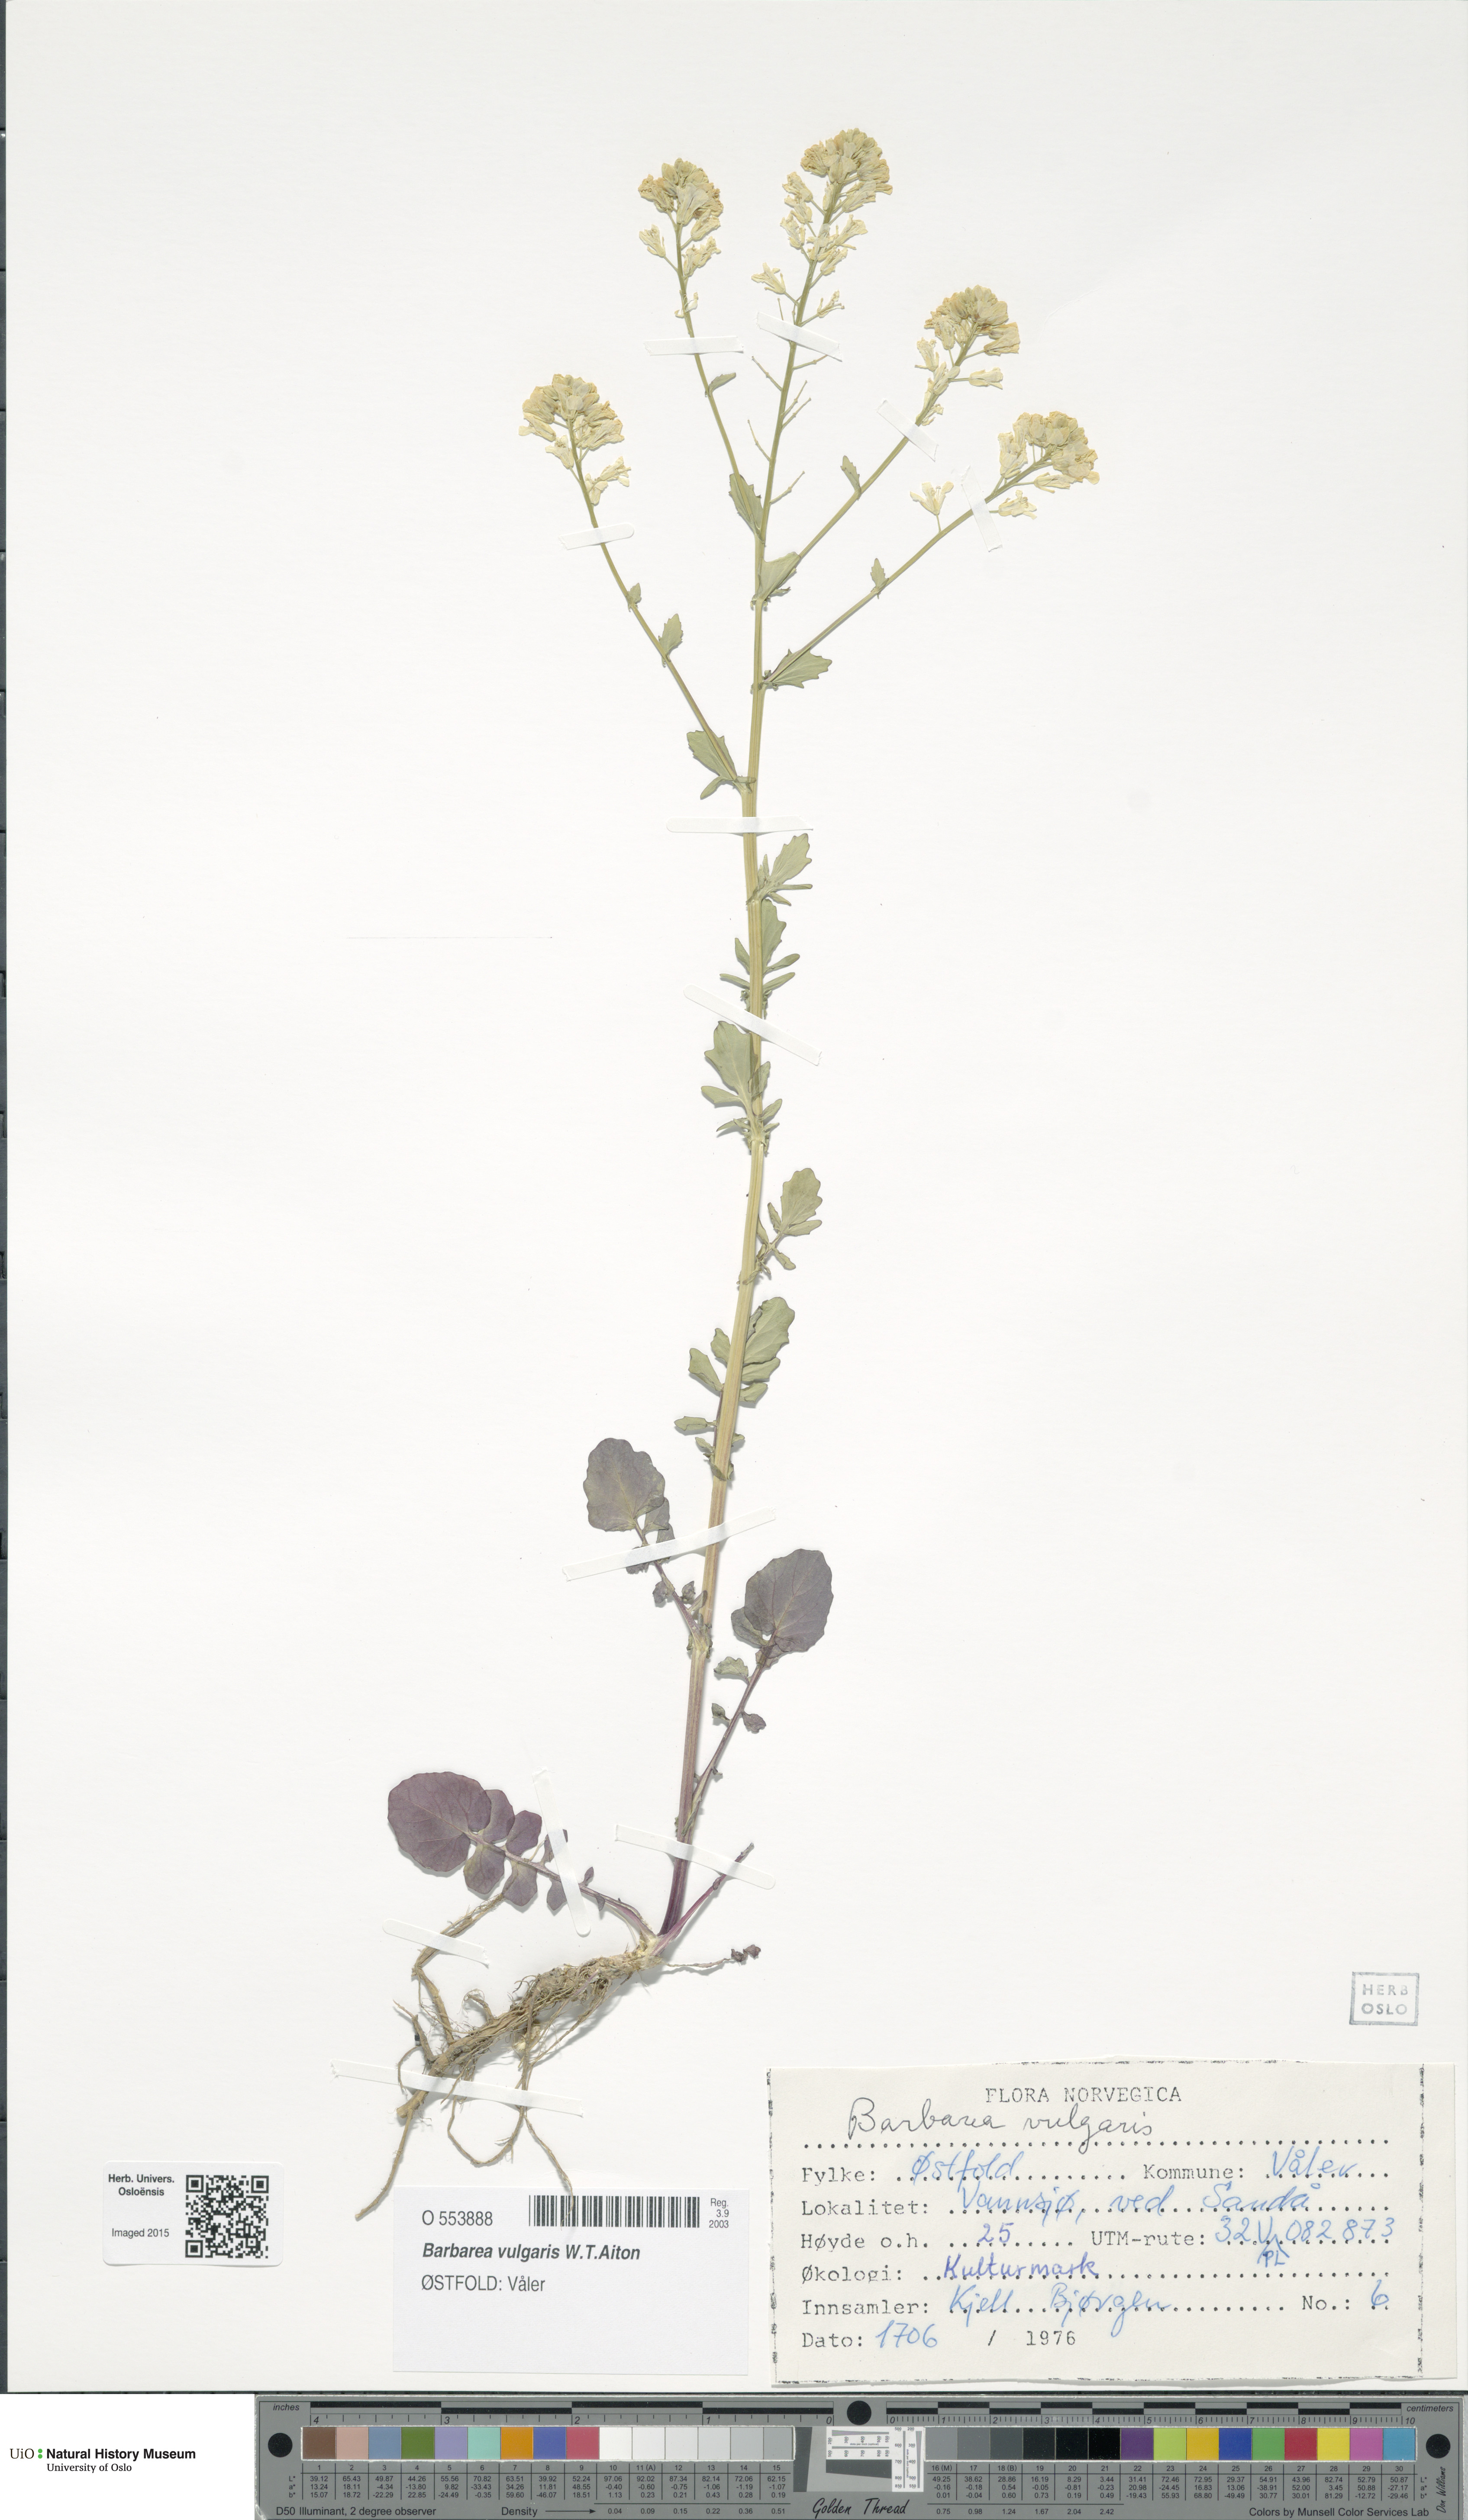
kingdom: Plantae
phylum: Tracheophyta
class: Magnoliopsida
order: Brassicales
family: Brassicaceae
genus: Barbarea
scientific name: Barbarea vulgaris
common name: Cressy-greens
